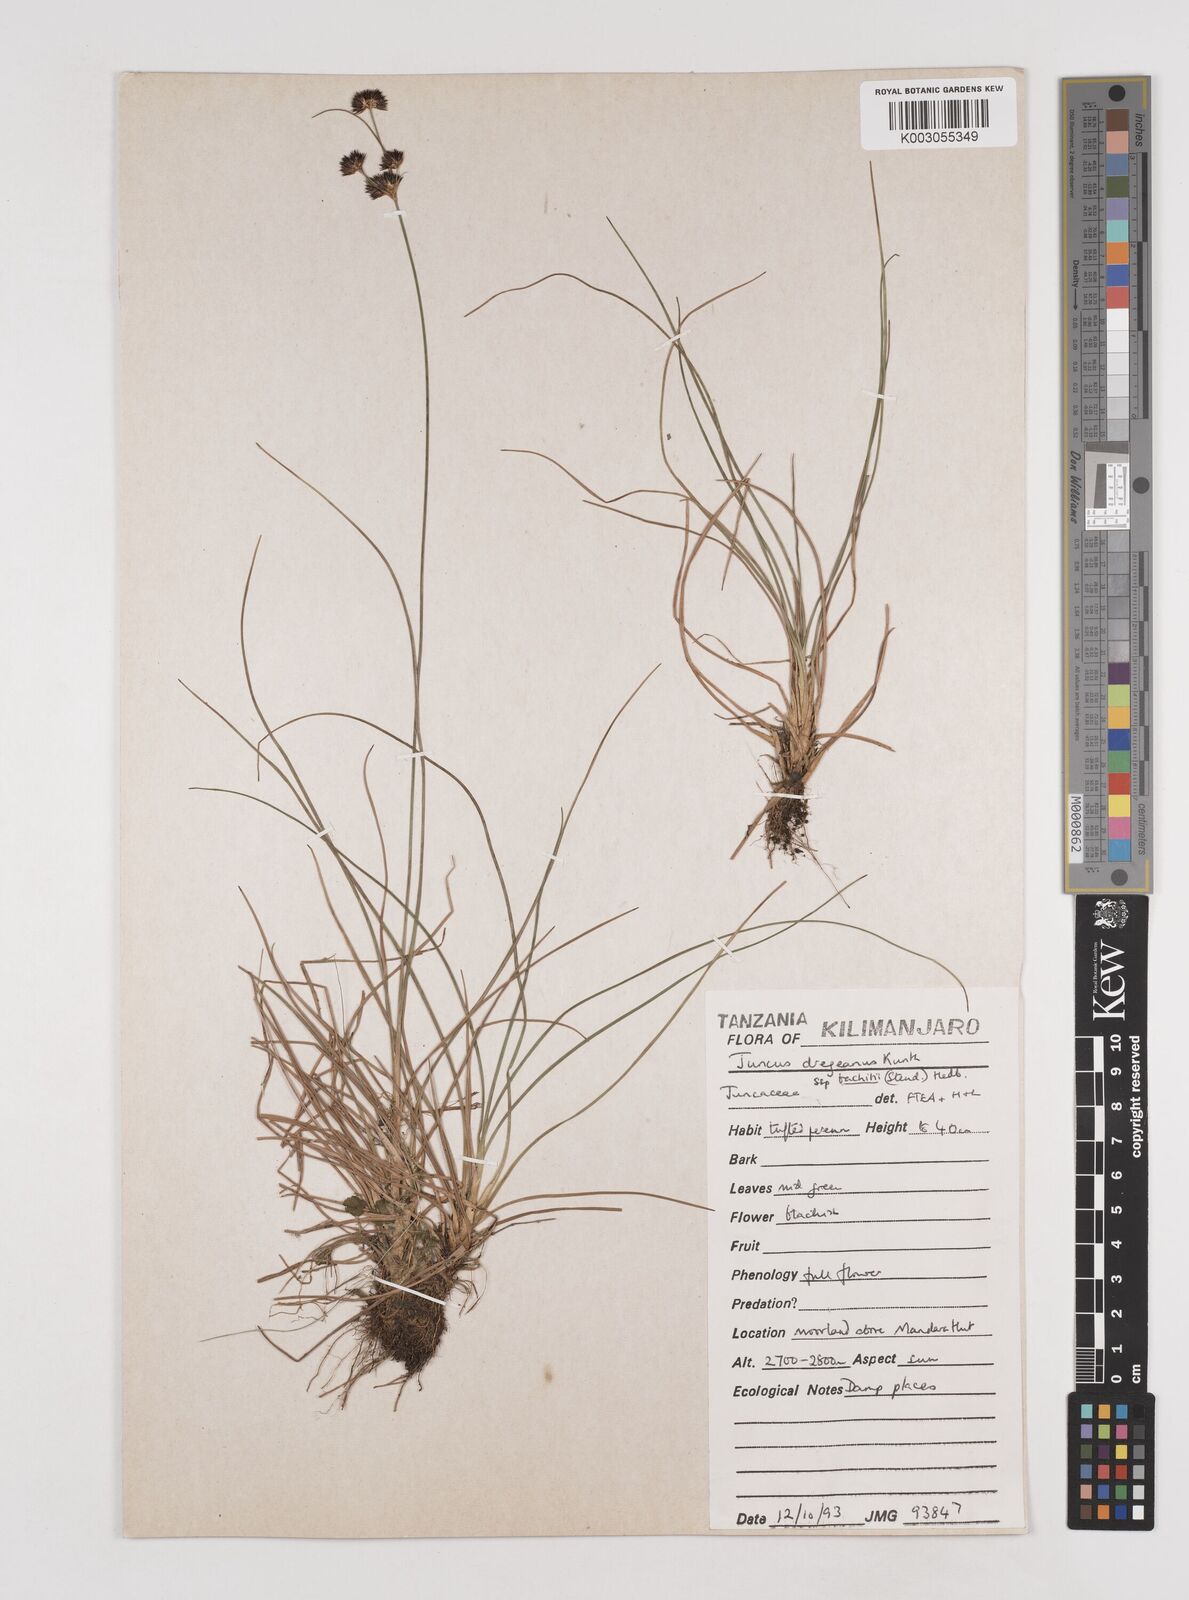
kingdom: Plantae
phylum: Tracheophyta
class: Liliopsida
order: Poales
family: Juncaceae
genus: Juncus
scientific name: Juncus dregeanus
